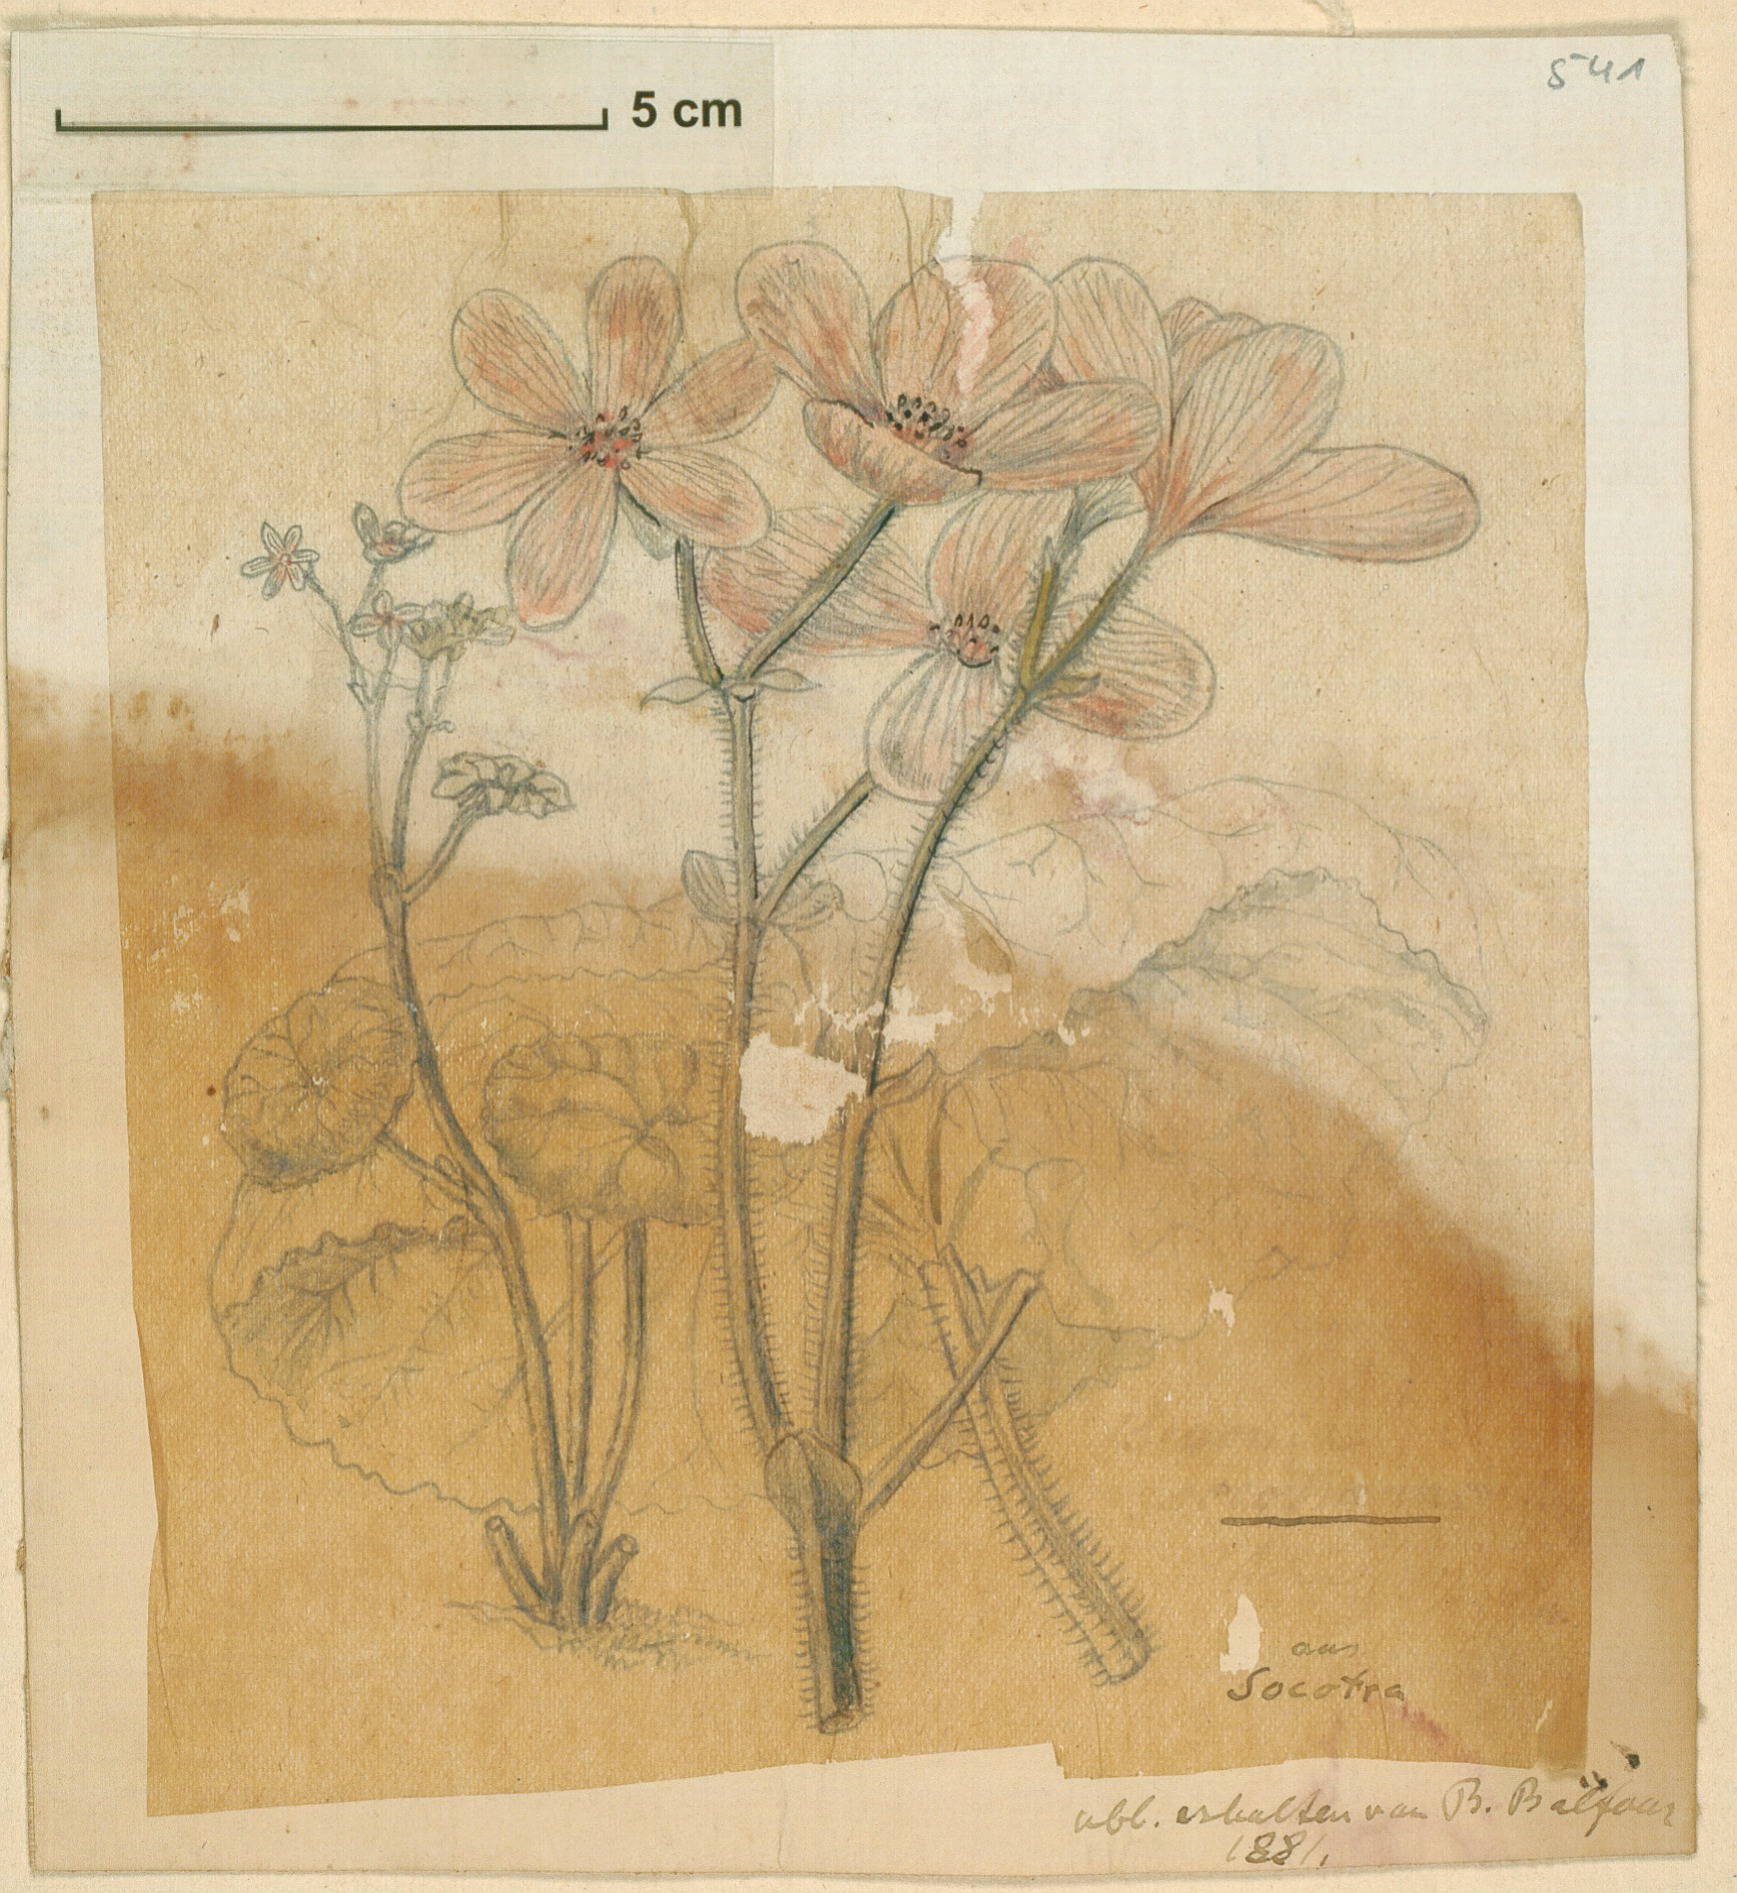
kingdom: Plantae
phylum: Tracheophyta
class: Magnoliopsida
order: Cucurbitales
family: Begoniaceae
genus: Begonia
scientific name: Begonia socotrana
